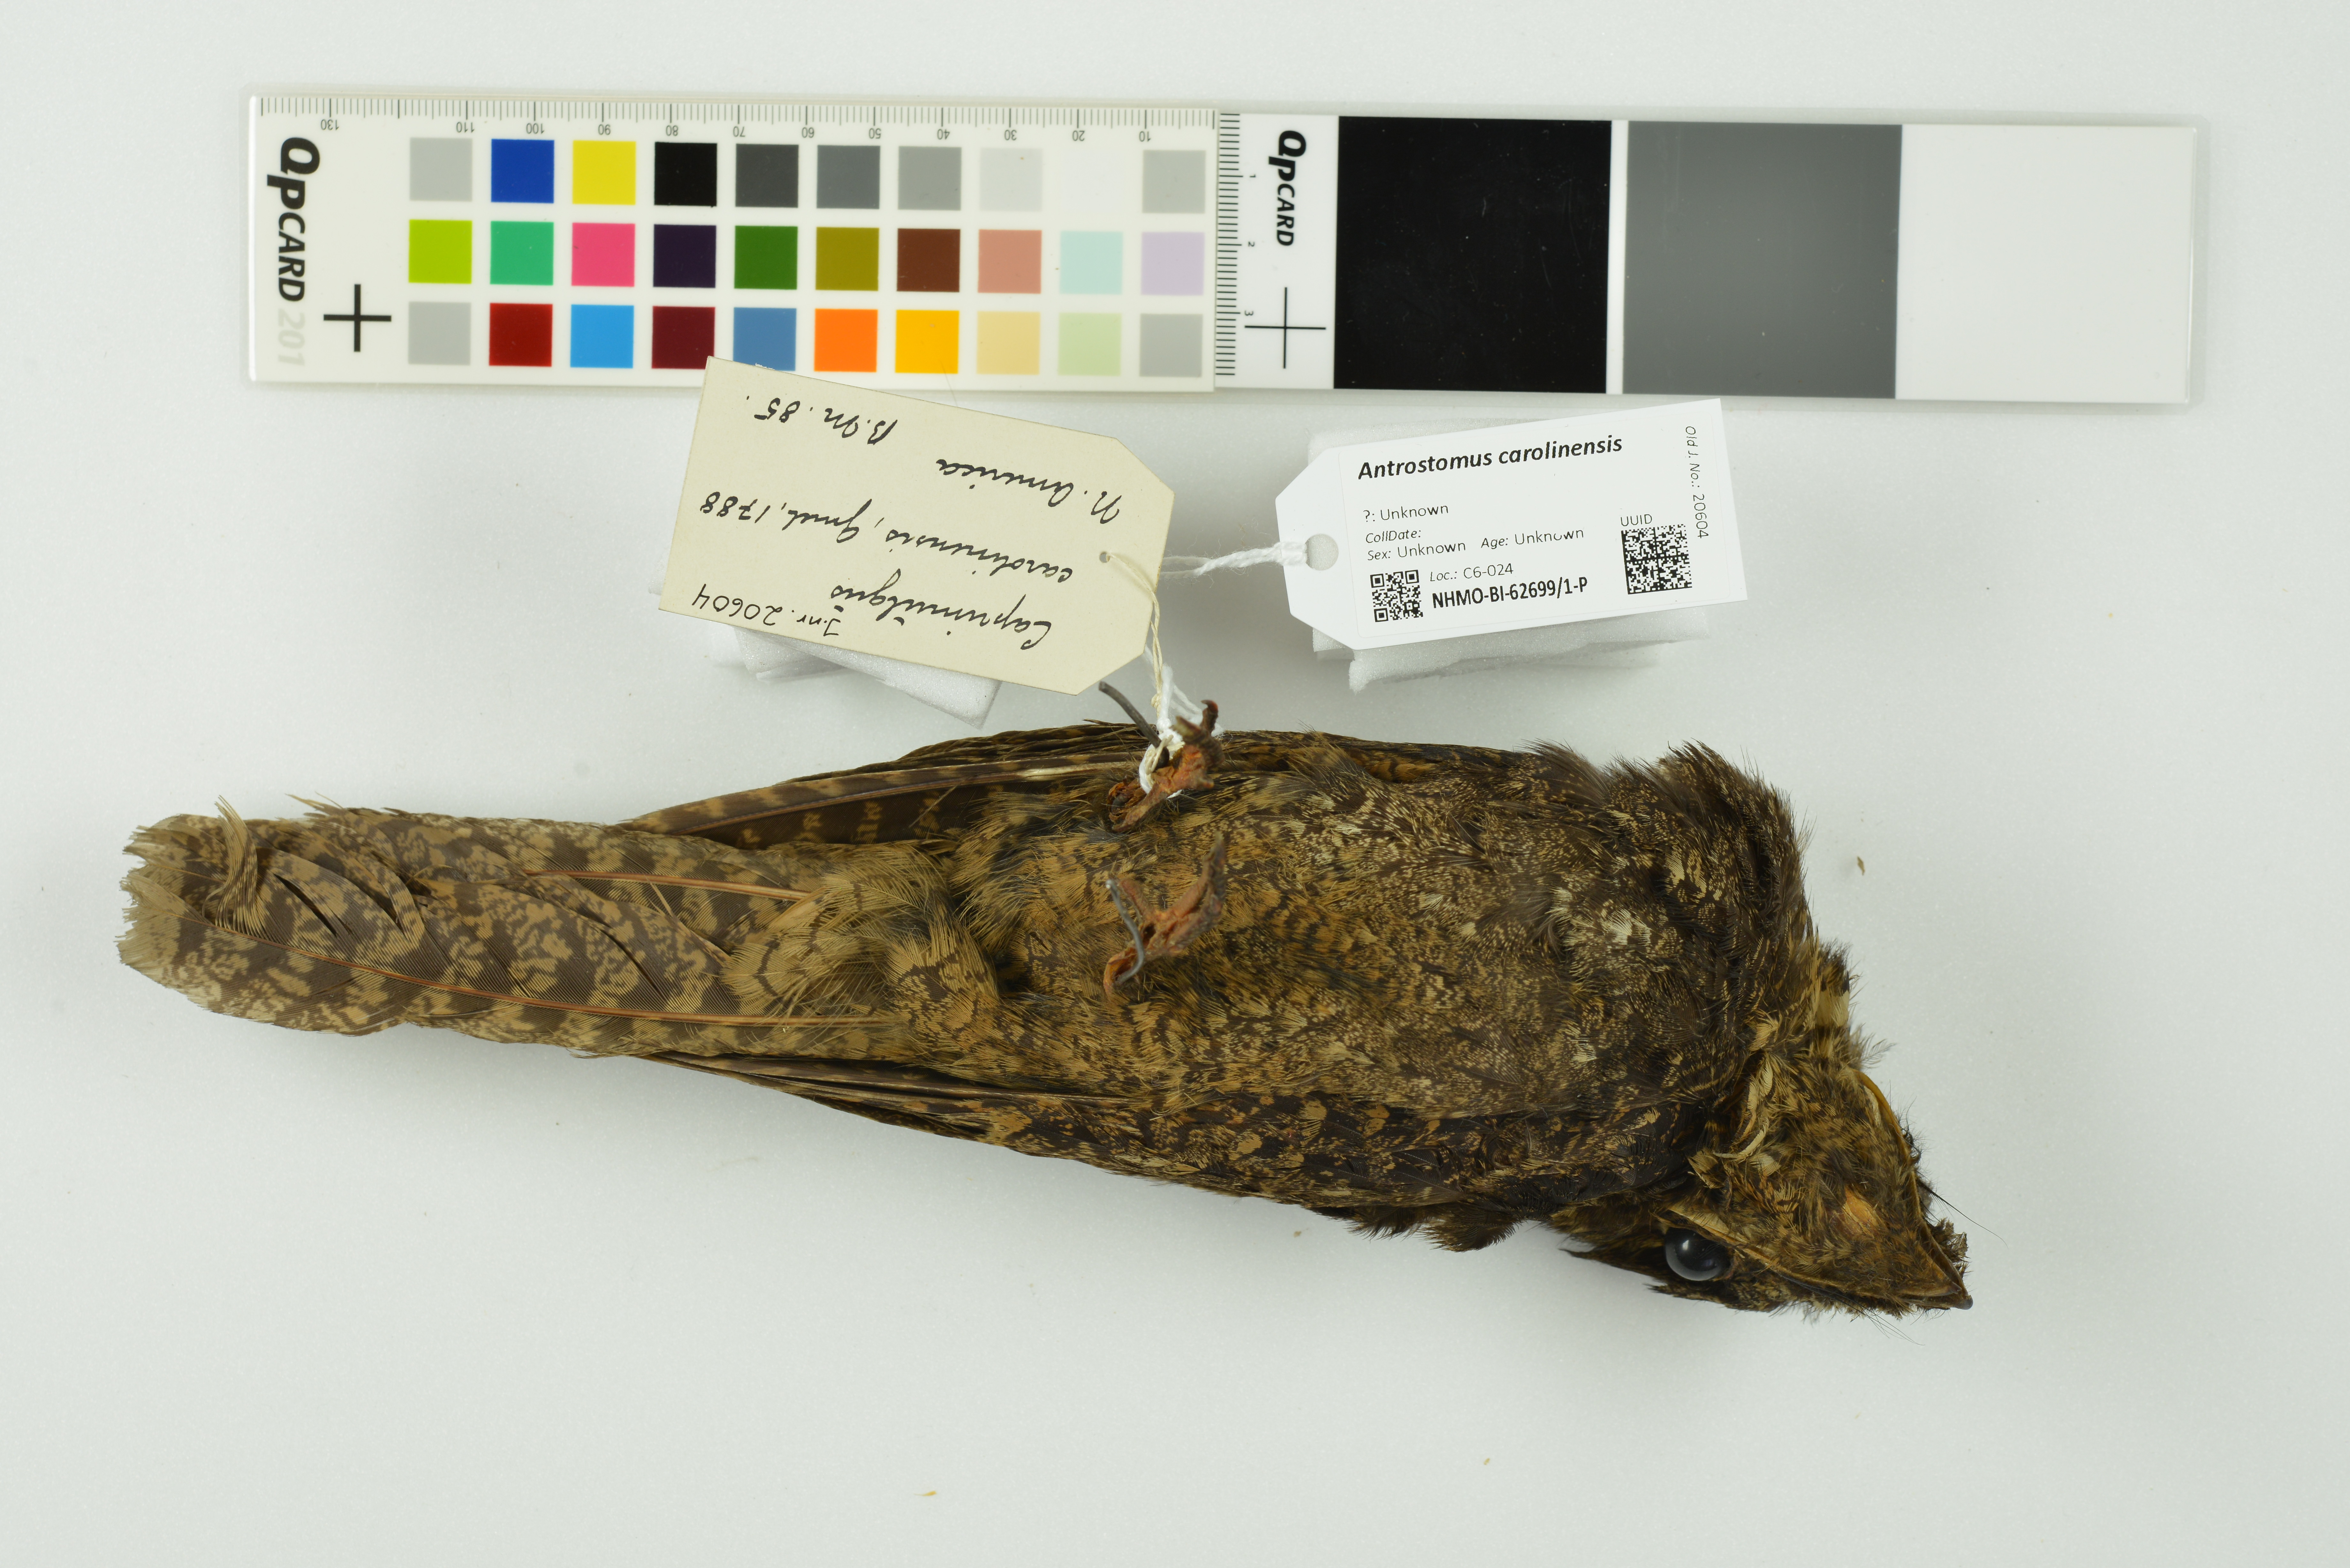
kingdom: Animalia
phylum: Chordata
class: Aves
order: Caprimulgiformes
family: Caprimulgidae
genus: Antrostomus
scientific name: Antrostomus carolinensis
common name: Chuck-will's-widow
